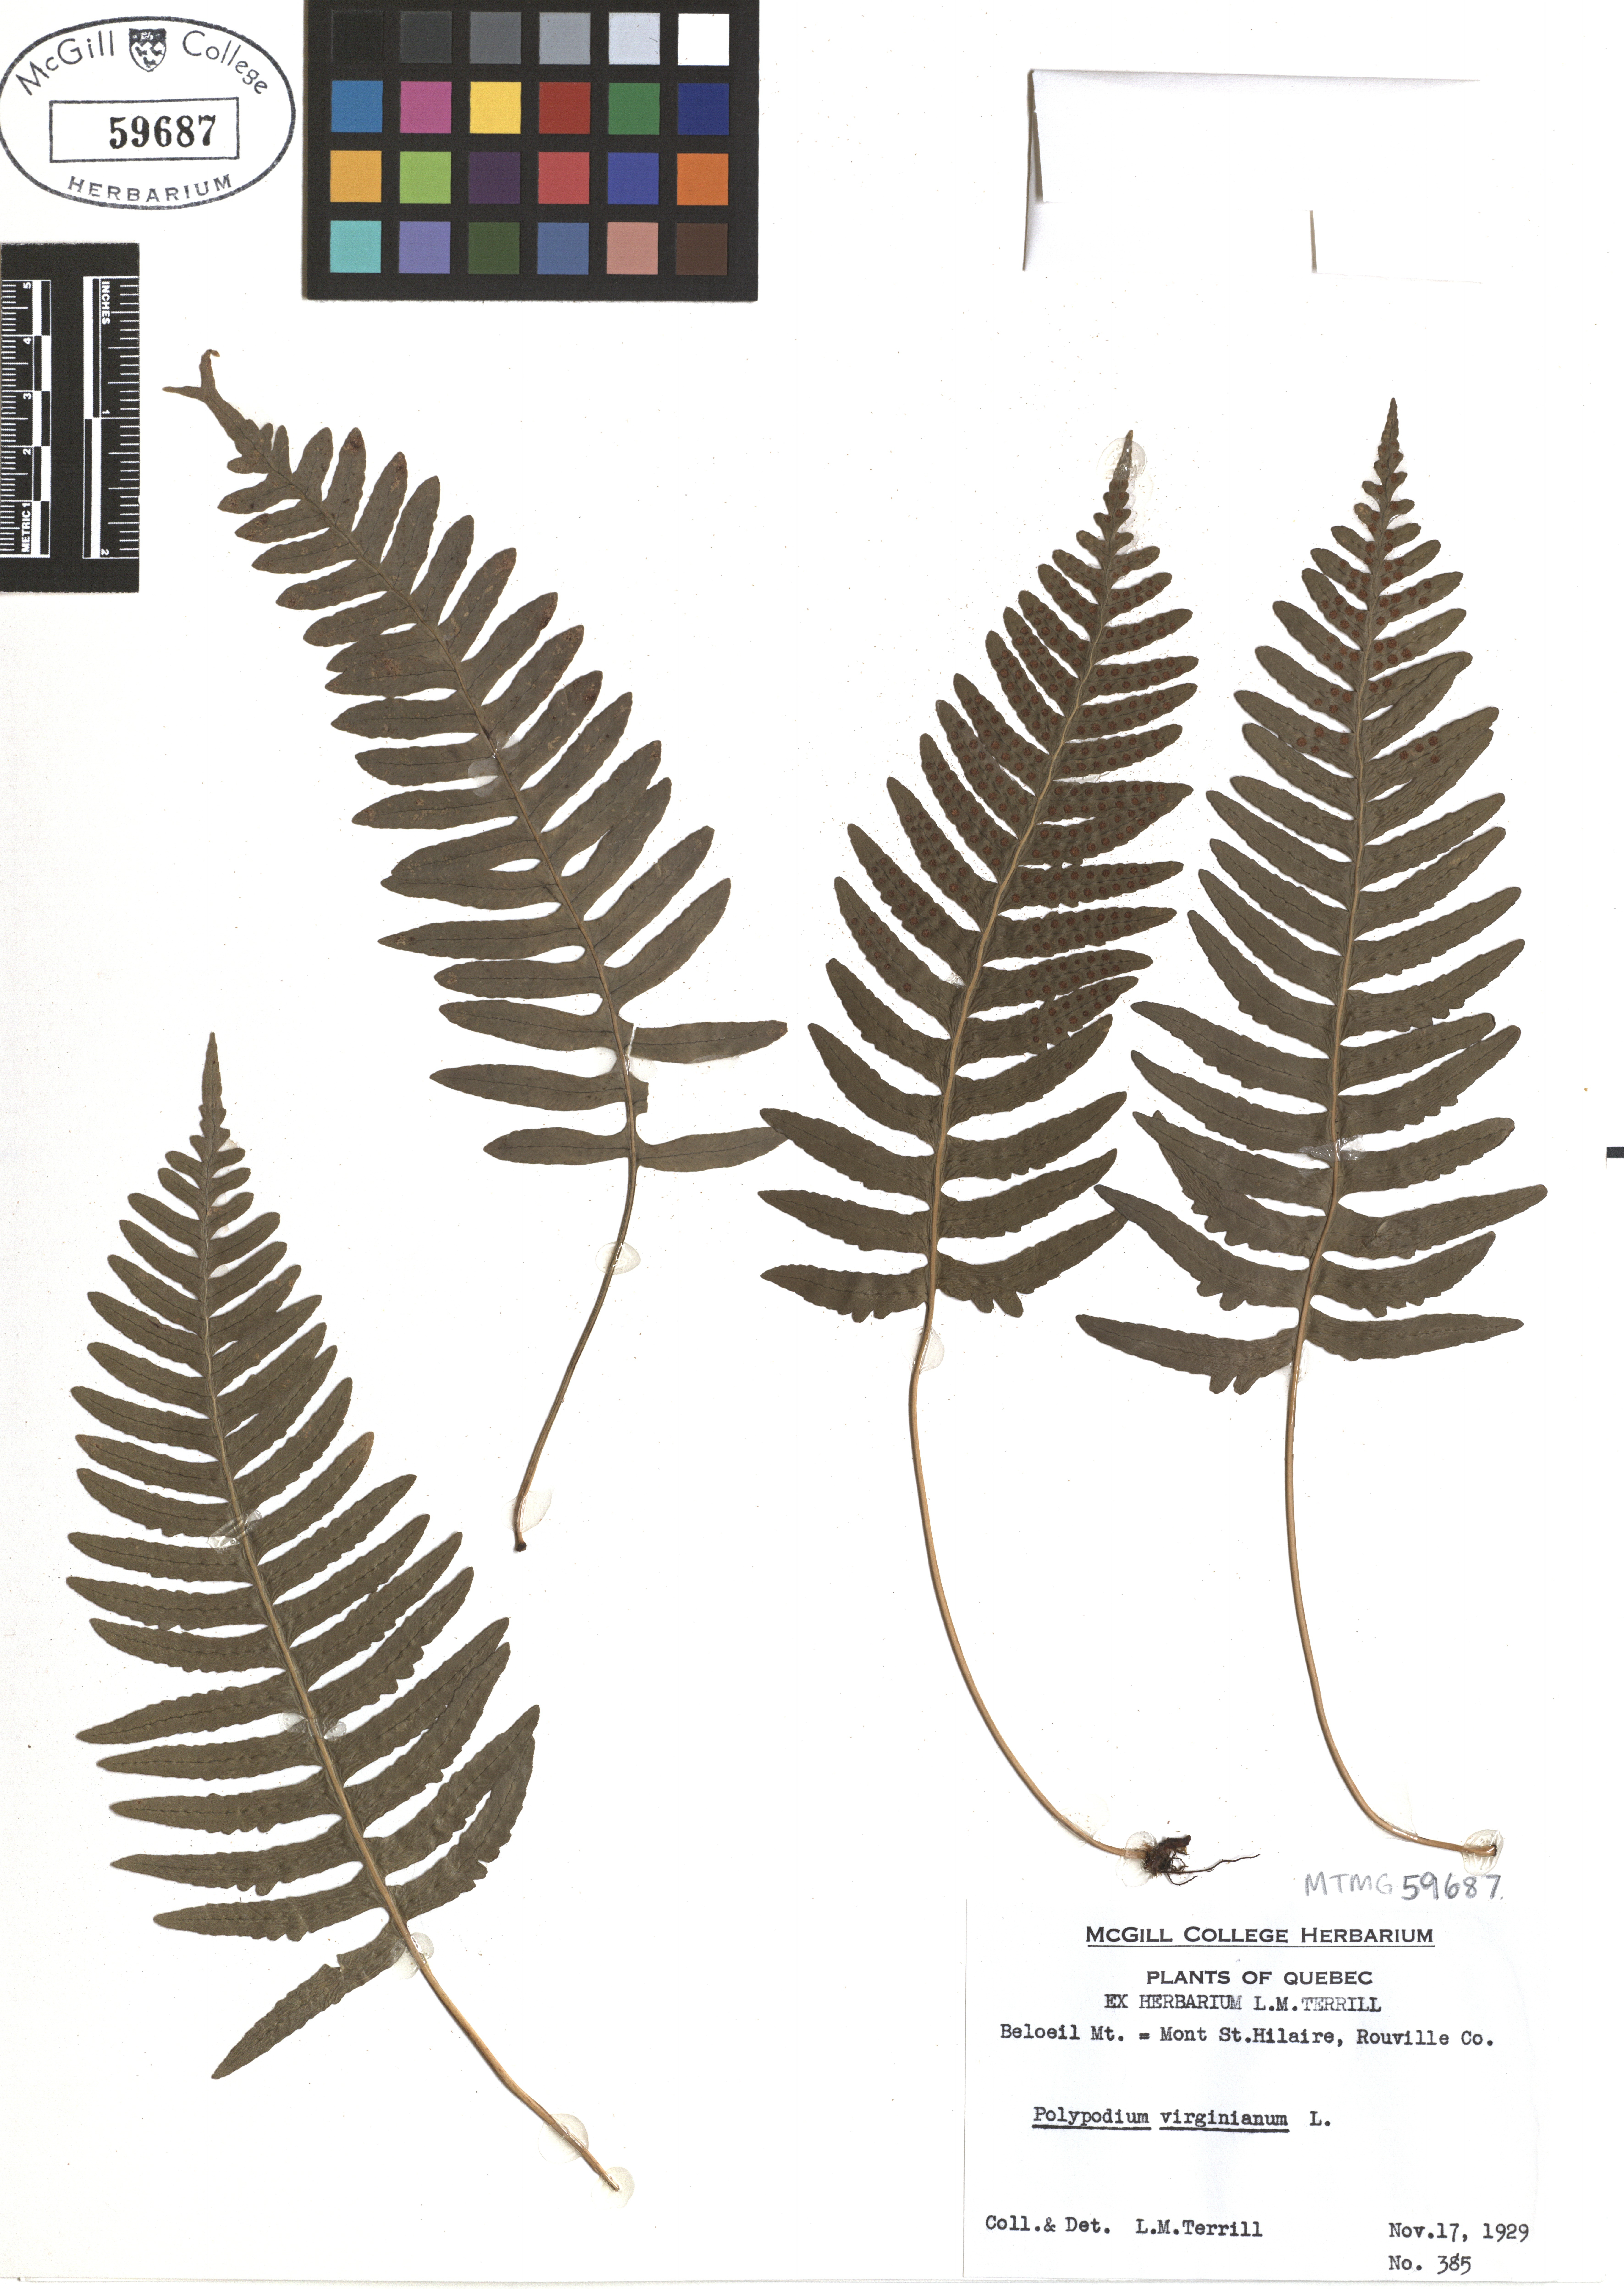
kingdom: Plantae
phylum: Tracheophyta
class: Polypodiopsida
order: Polypodiales
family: Polypodiaceae
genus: Polypodium
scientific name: Polypodium virginianum
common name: American wall fern
